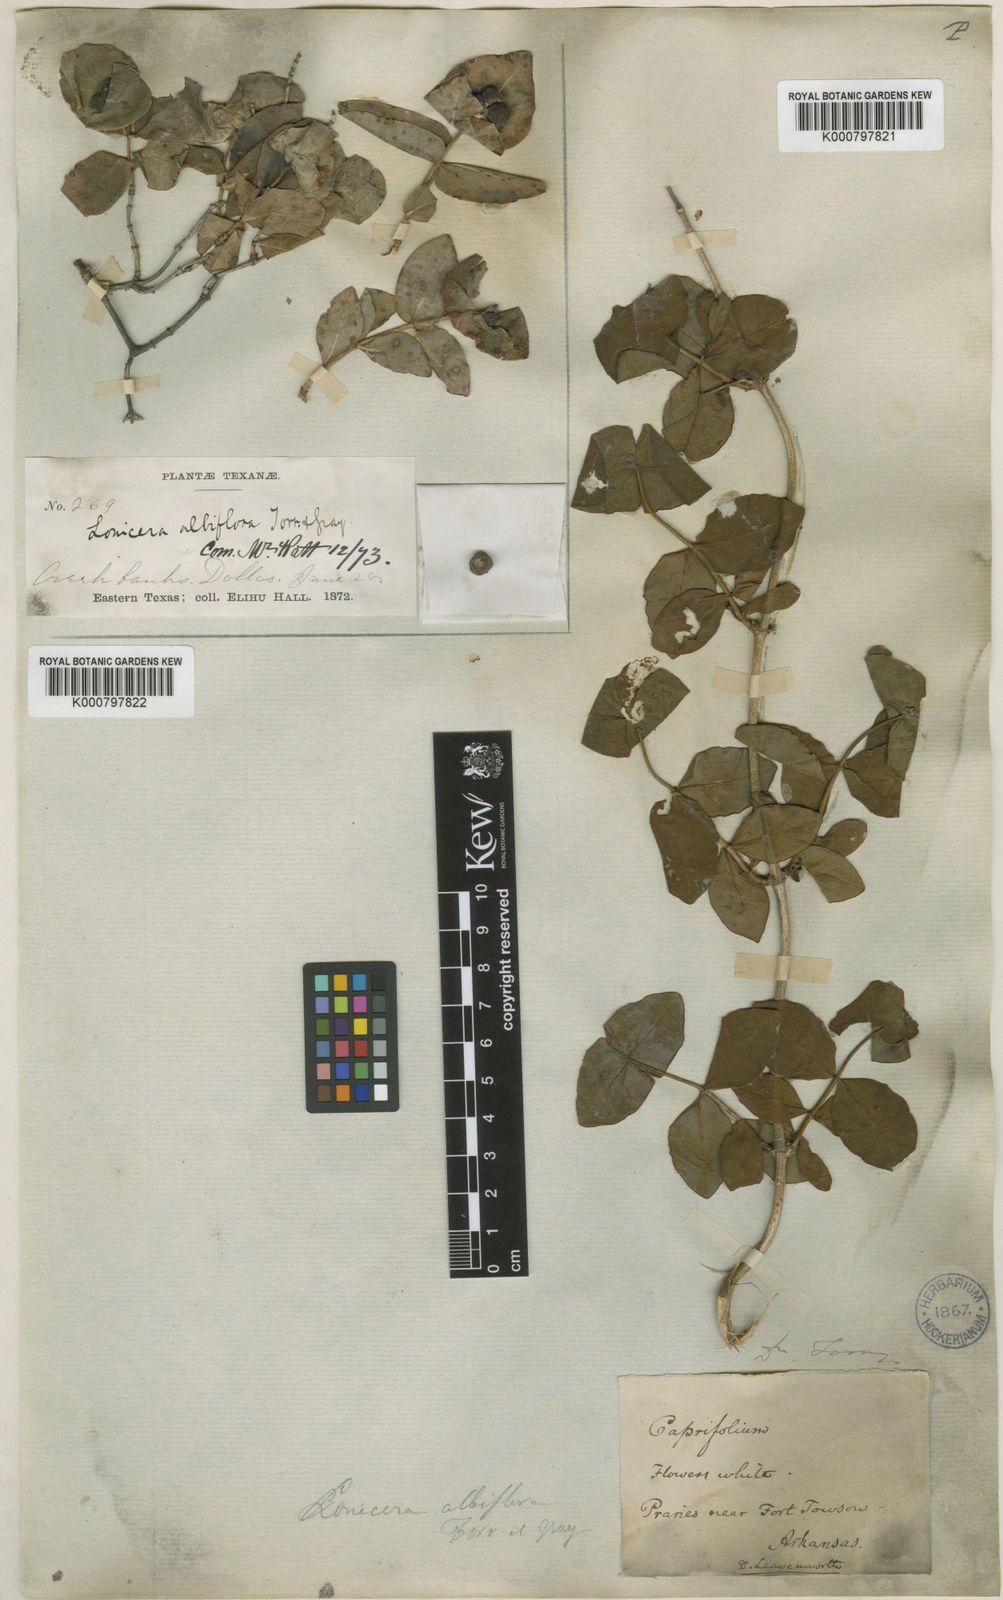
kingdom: Plantae
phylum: Tracheophyta
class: Magnoliopsida
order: Dipsacales
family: Caprifoliaceae
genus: Lonicera
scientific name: Lonicera albiflora
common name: White honeysuckle
